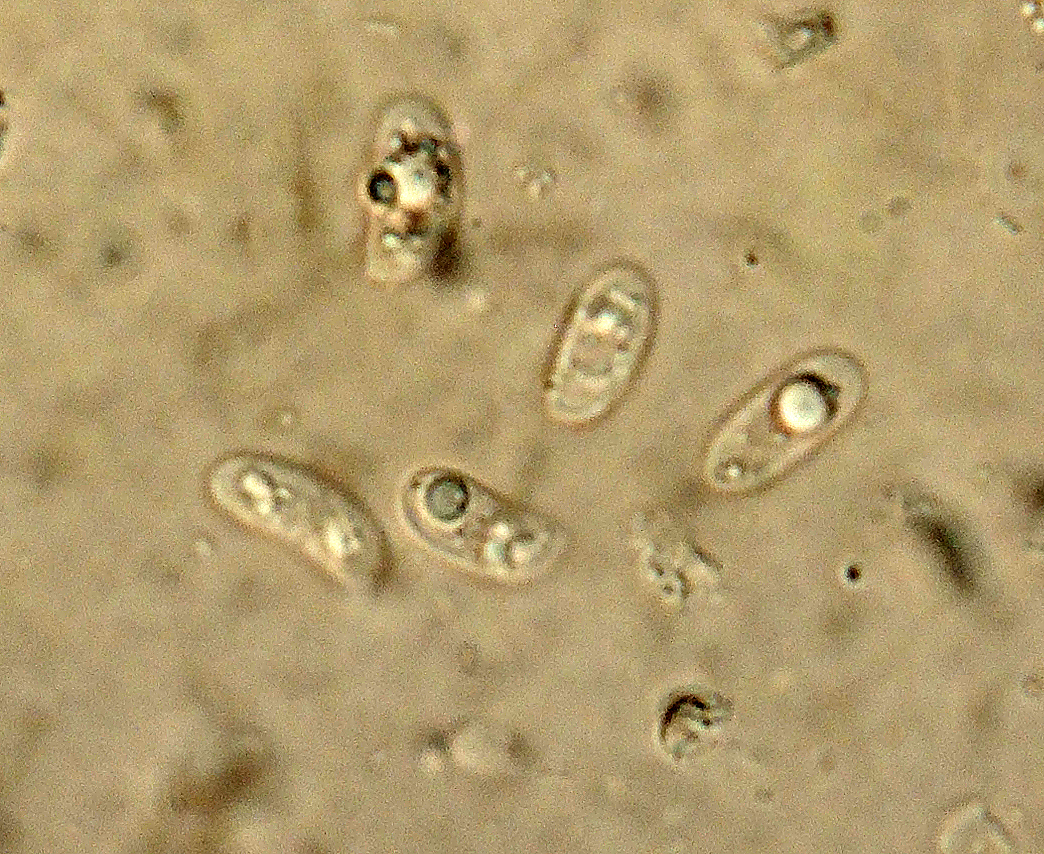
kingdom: Fungi
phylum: Basidiomycota
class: Agaricomycetes
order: Hymenochaetales
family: Rickenellaceae
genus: Peniophorella
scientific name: Peniophorella pallida
